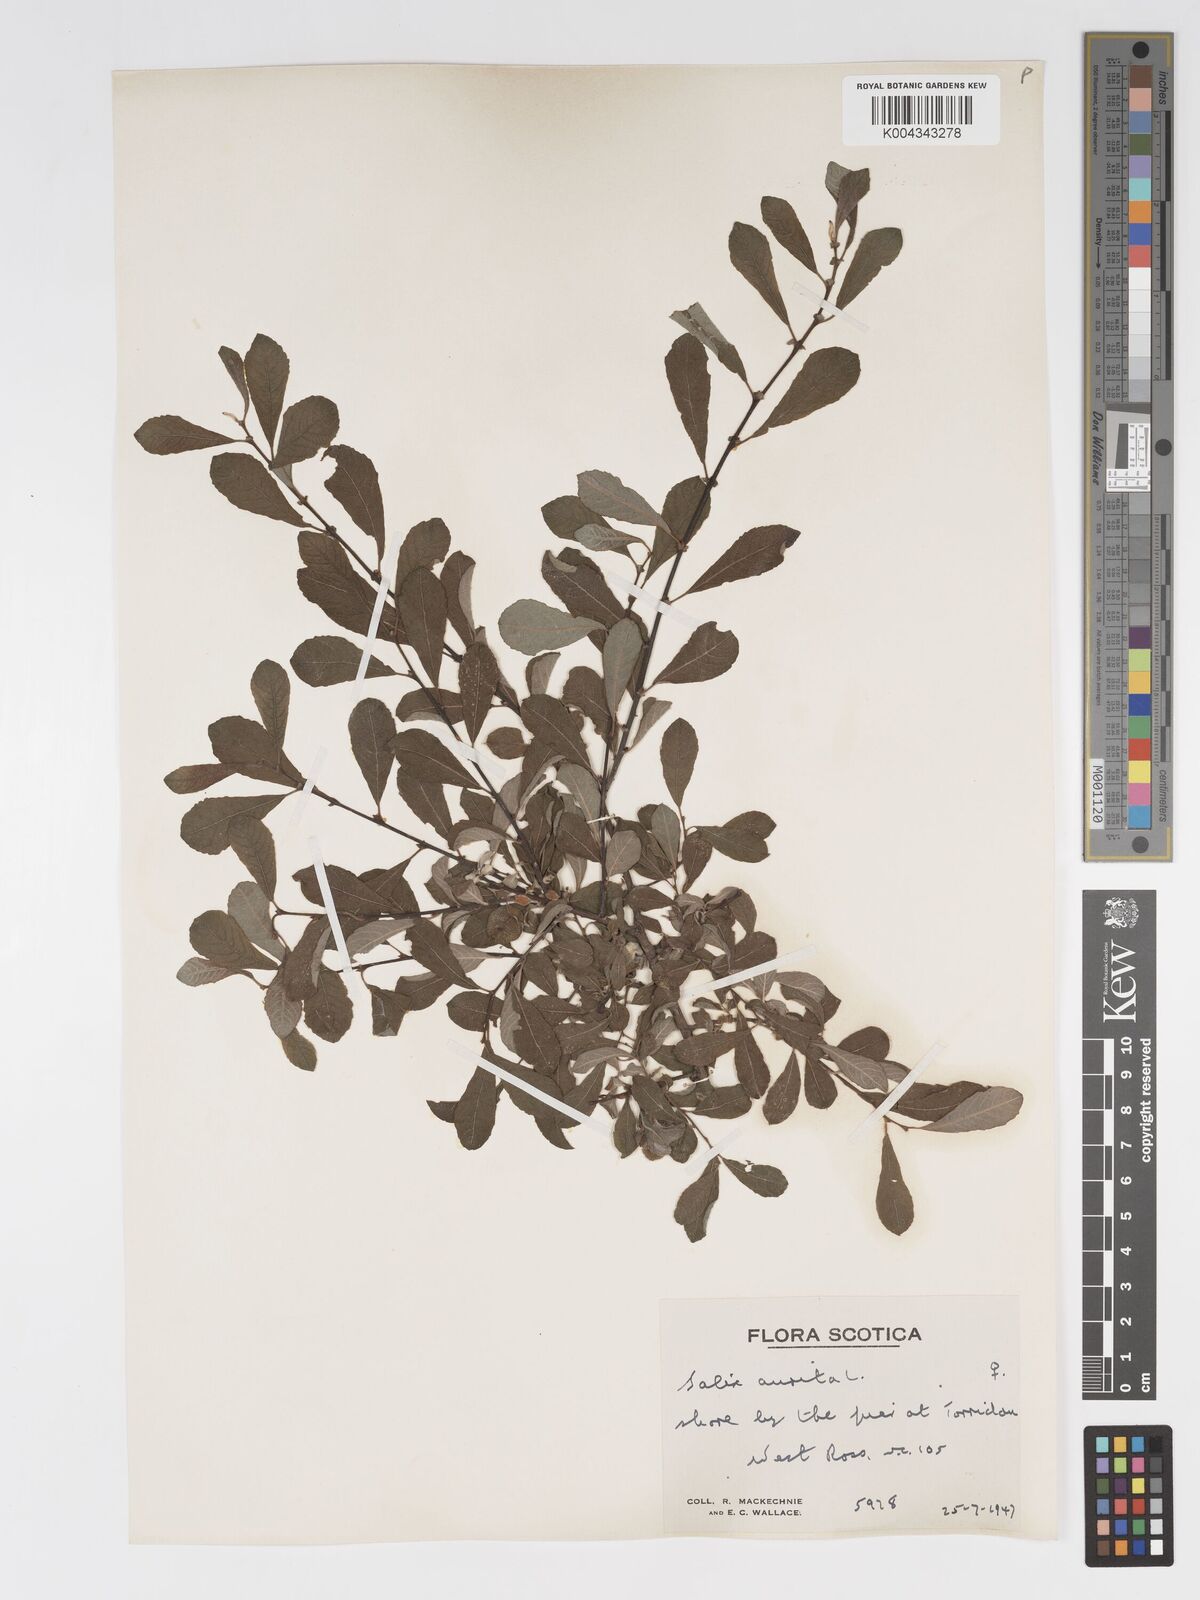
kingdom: Plantae
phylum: Tracheophyta
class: Magnoliopsida
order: Malpighiales
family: Salicaceae
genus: Salix
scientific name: Salix aurita
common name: Eared willow
